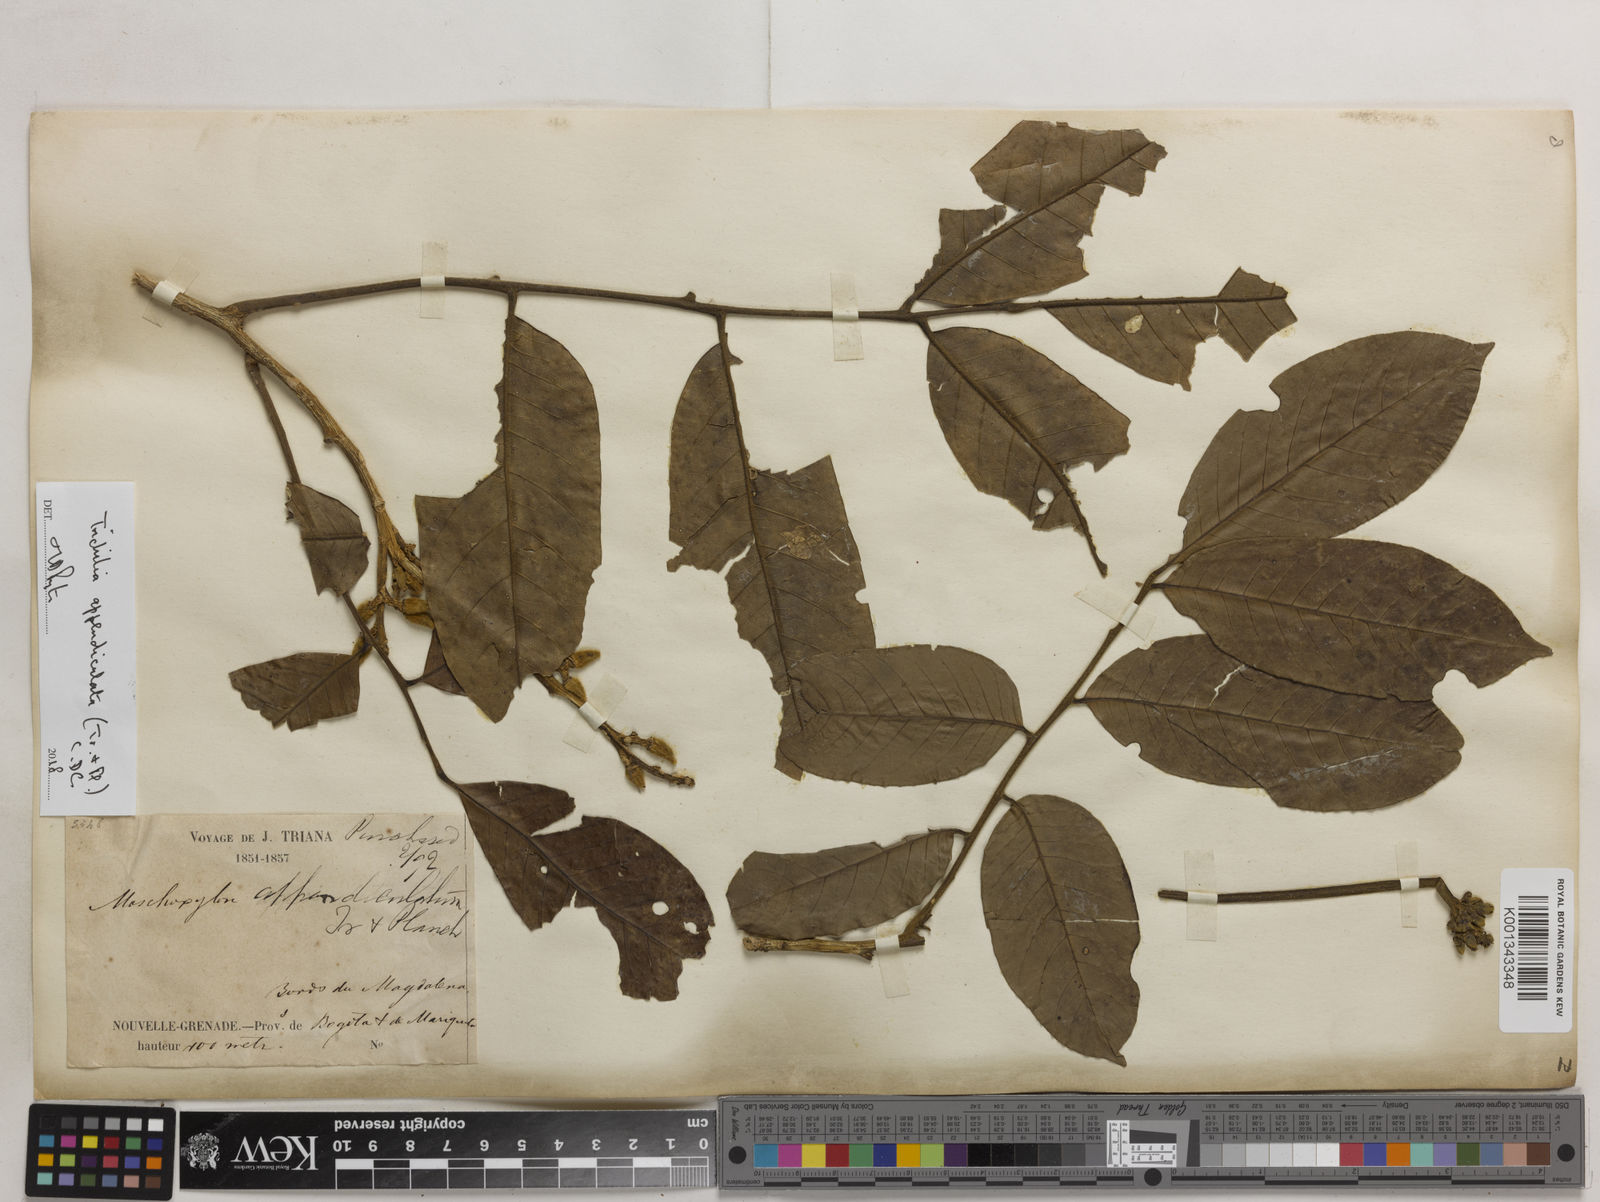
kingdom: Plantae
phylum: Tracheophyta
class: Magnoliopsida
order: Sapindales
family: Meliaceae
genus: Trichilia
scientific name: Trichilia appendiculata
